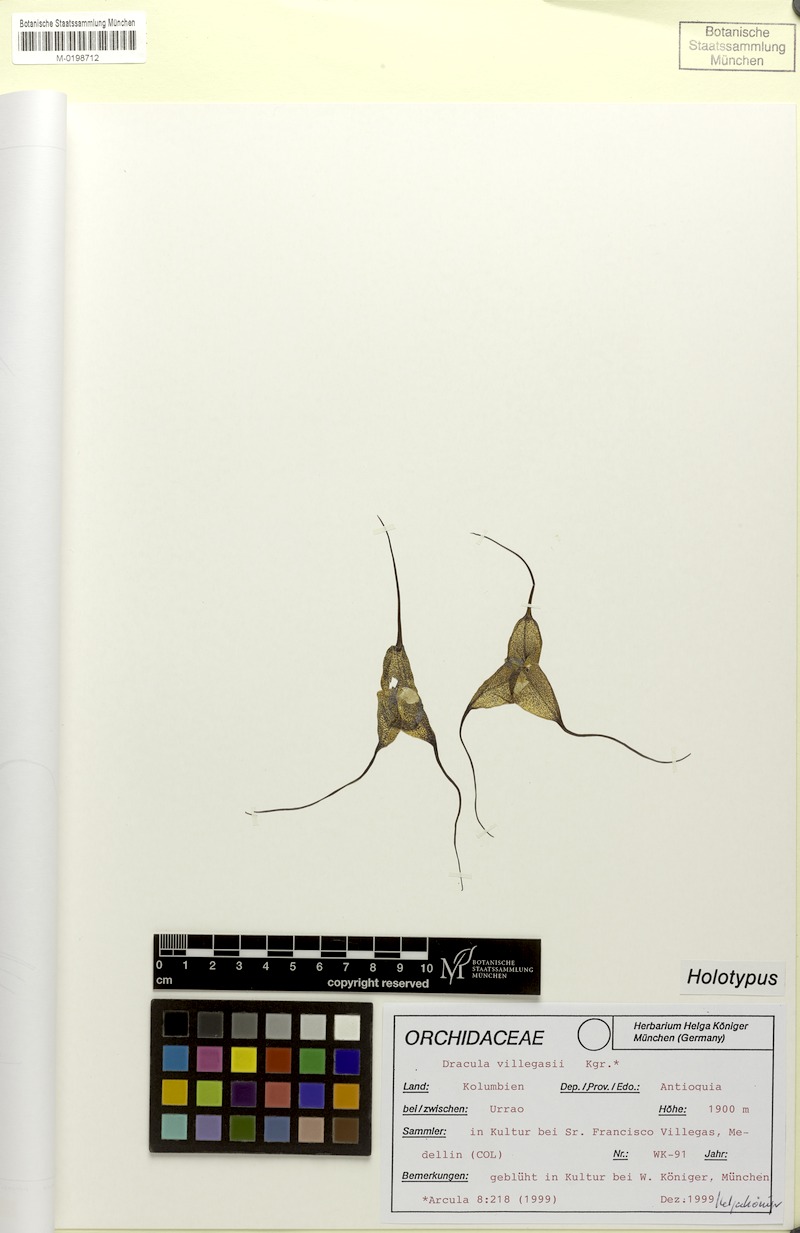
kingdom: Plantae
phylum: Tracheophyta
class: Liliopsida
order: Asparagales
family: Orchidaceae
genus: Dracula
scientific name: Dracula villegasii
